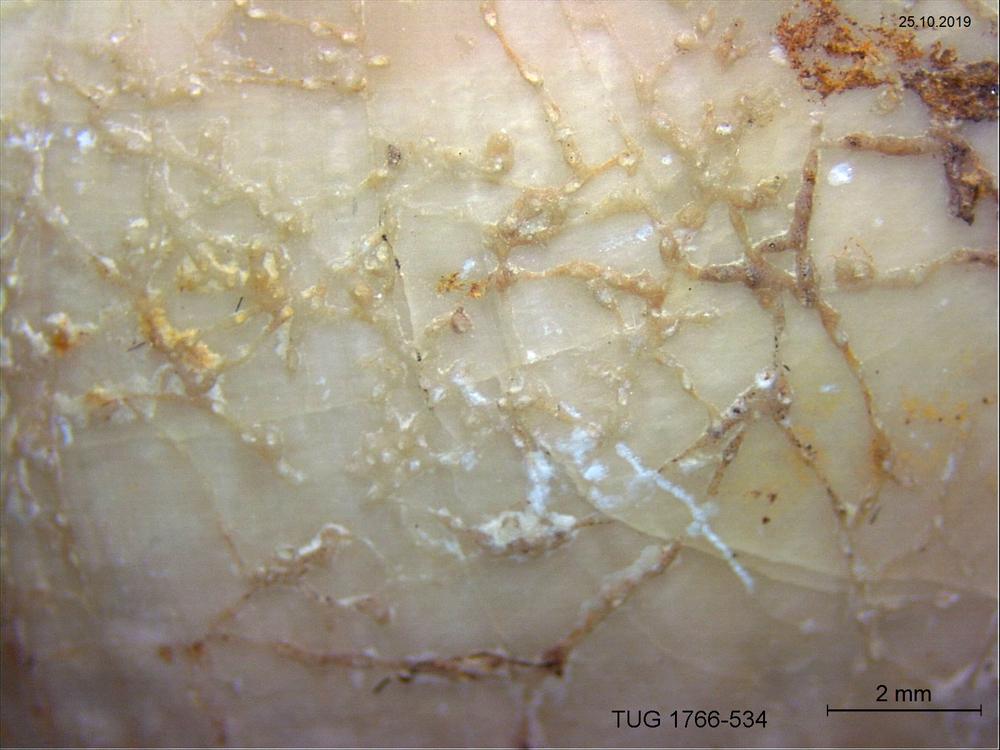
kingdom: Animalia
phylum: Bryozoa
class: Stenolaemata
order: Cyclostomatida
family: Corynotrypidae
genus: Corynotrypa
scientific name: Corynotrypa
